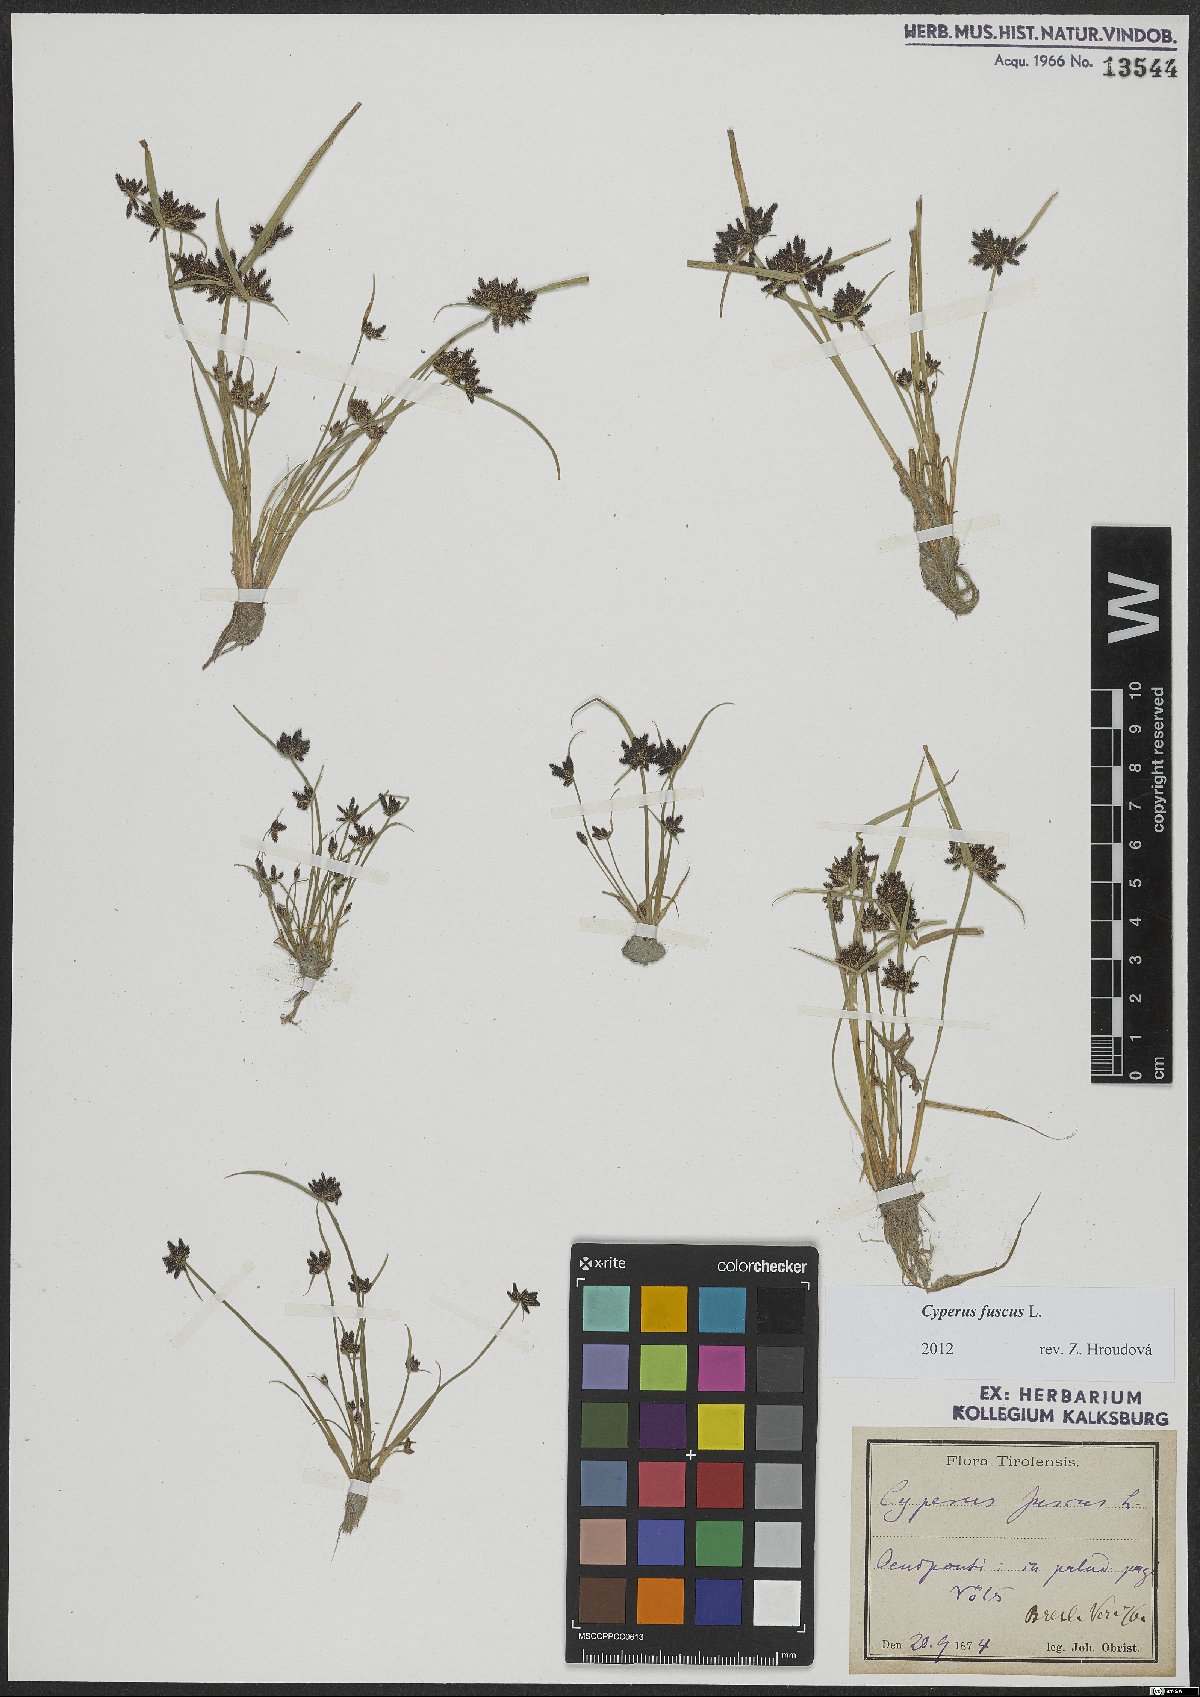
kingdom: Plantae
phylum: Tracheophyta
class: Liliopsida
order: Poales
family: Cyperaceae
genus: Cyperus
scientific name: Cyperus fuscus
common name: Brown galingale
